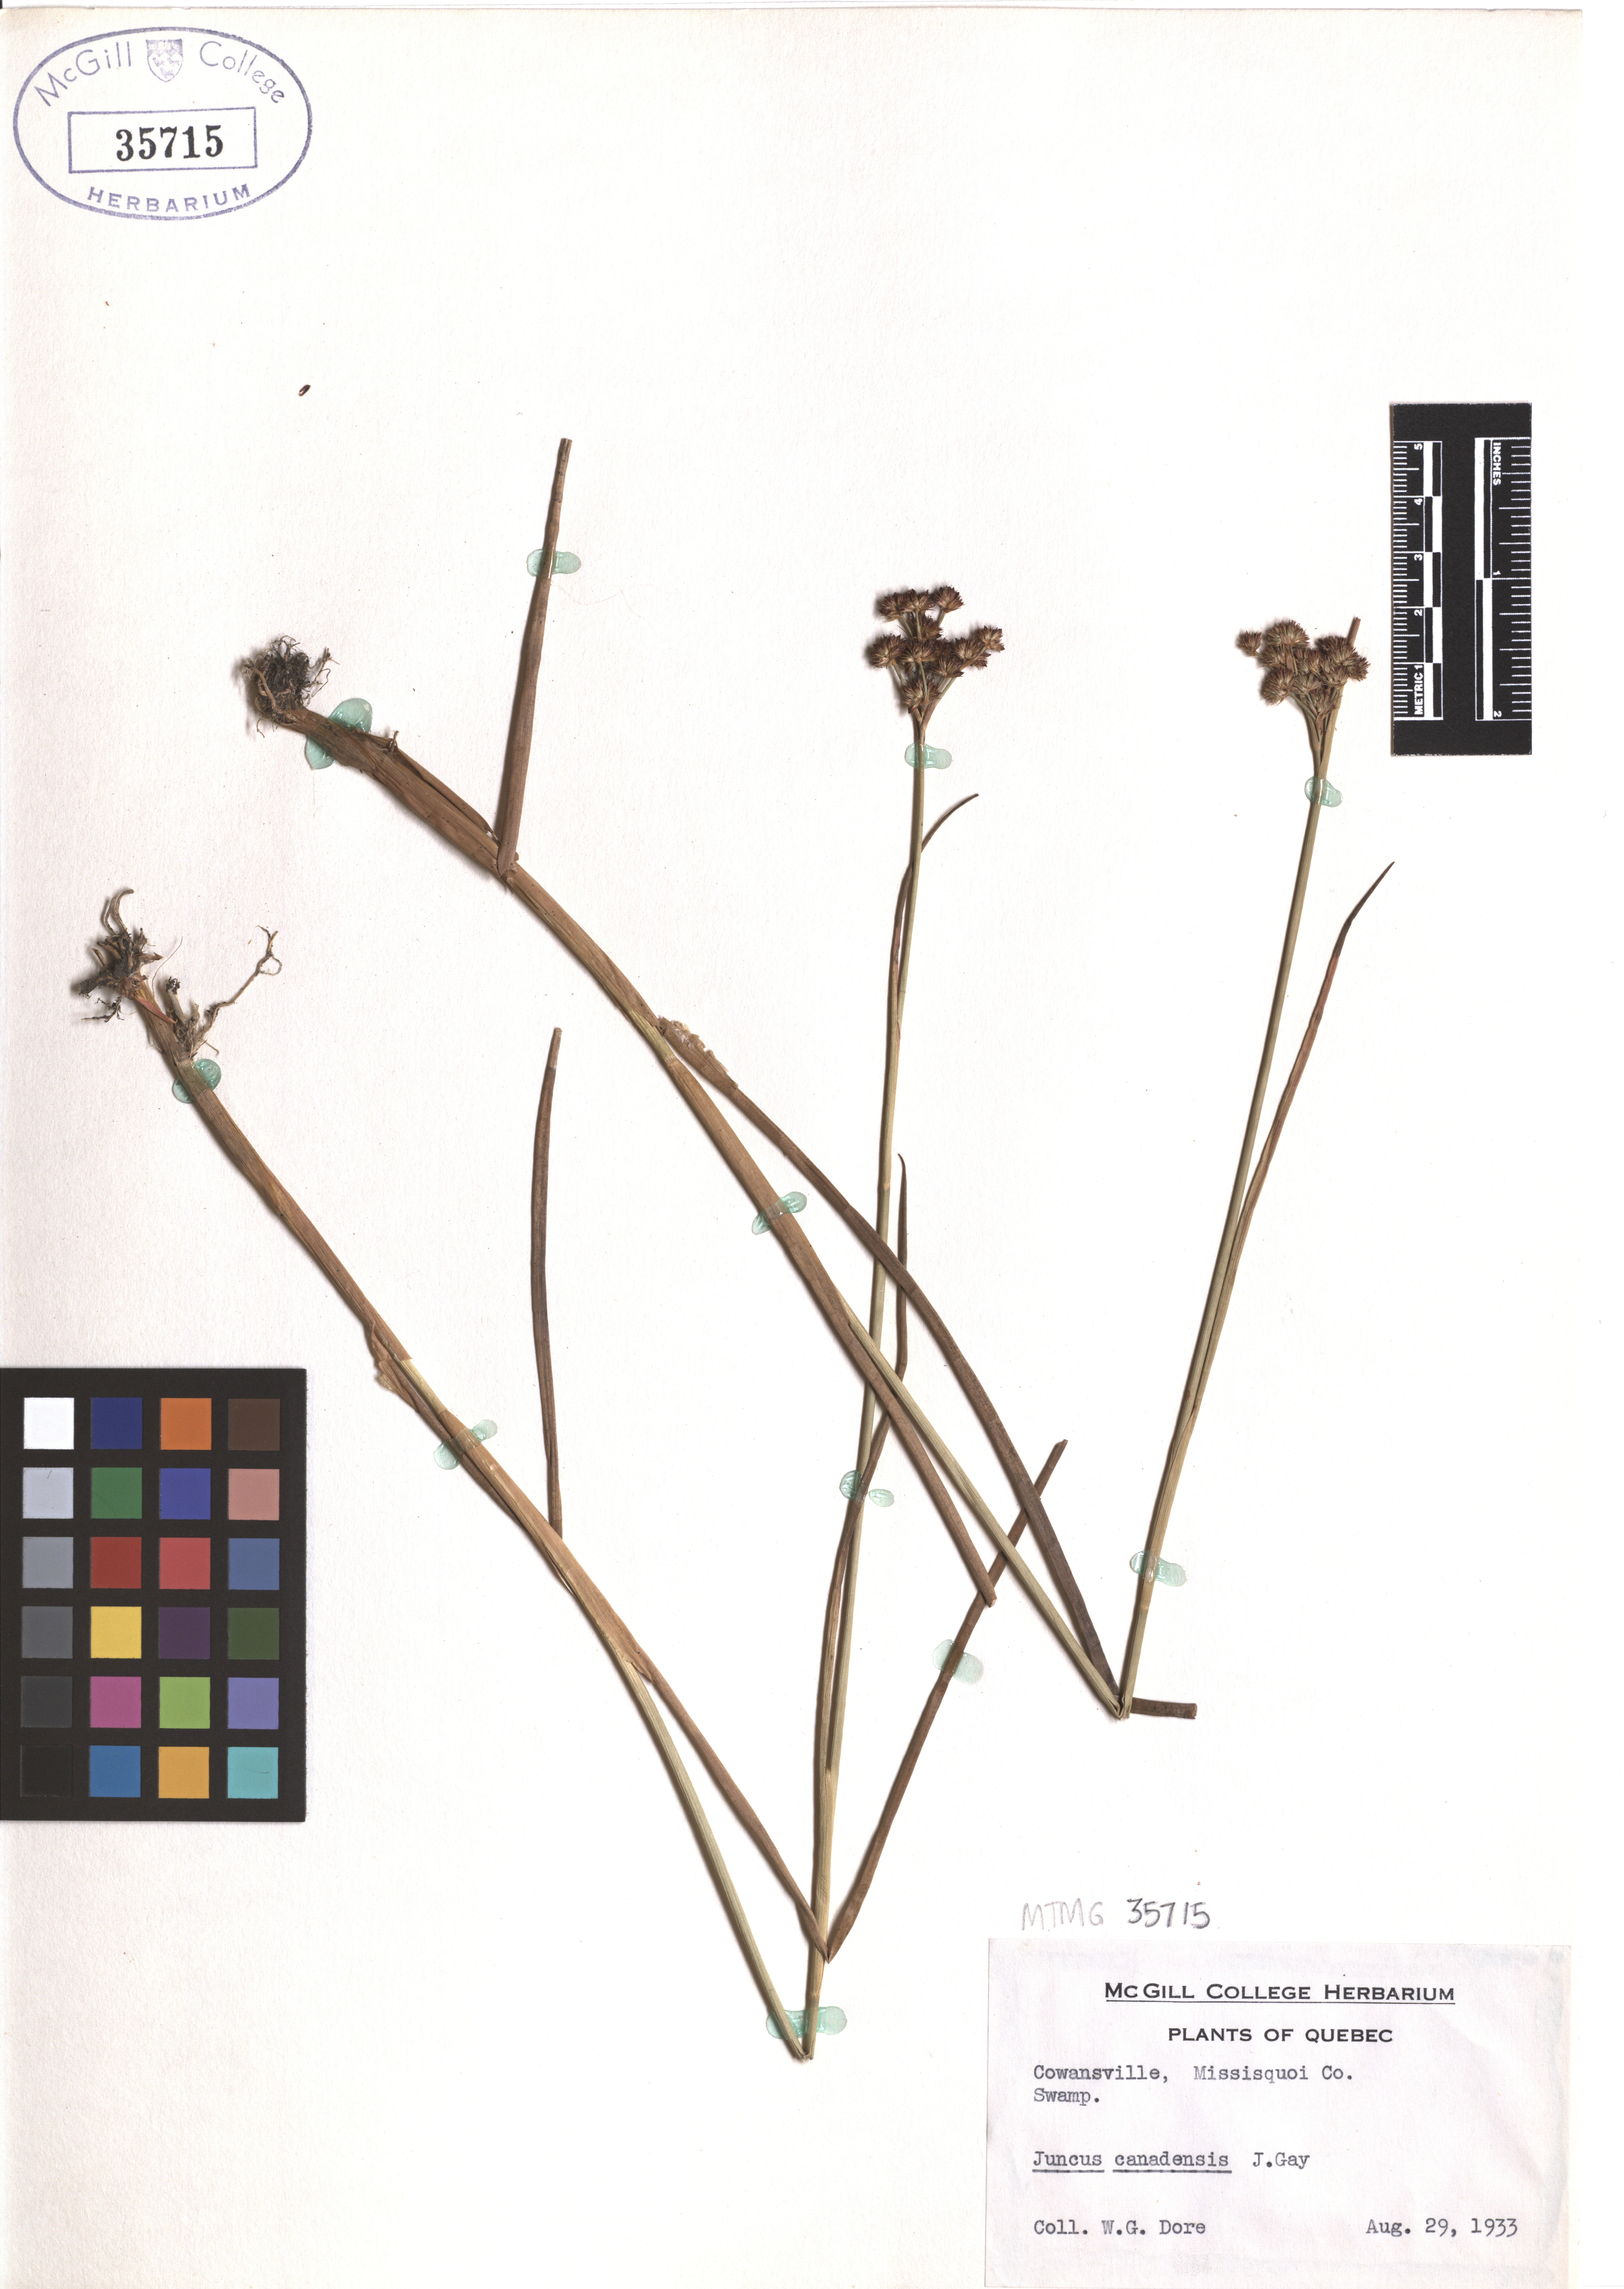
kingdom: Plantae
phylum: Tracheophyta
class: Liliopsida
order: Poales
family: Juncaceae
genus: Juncus
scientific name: Juncus canadensis
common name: Canada rush
